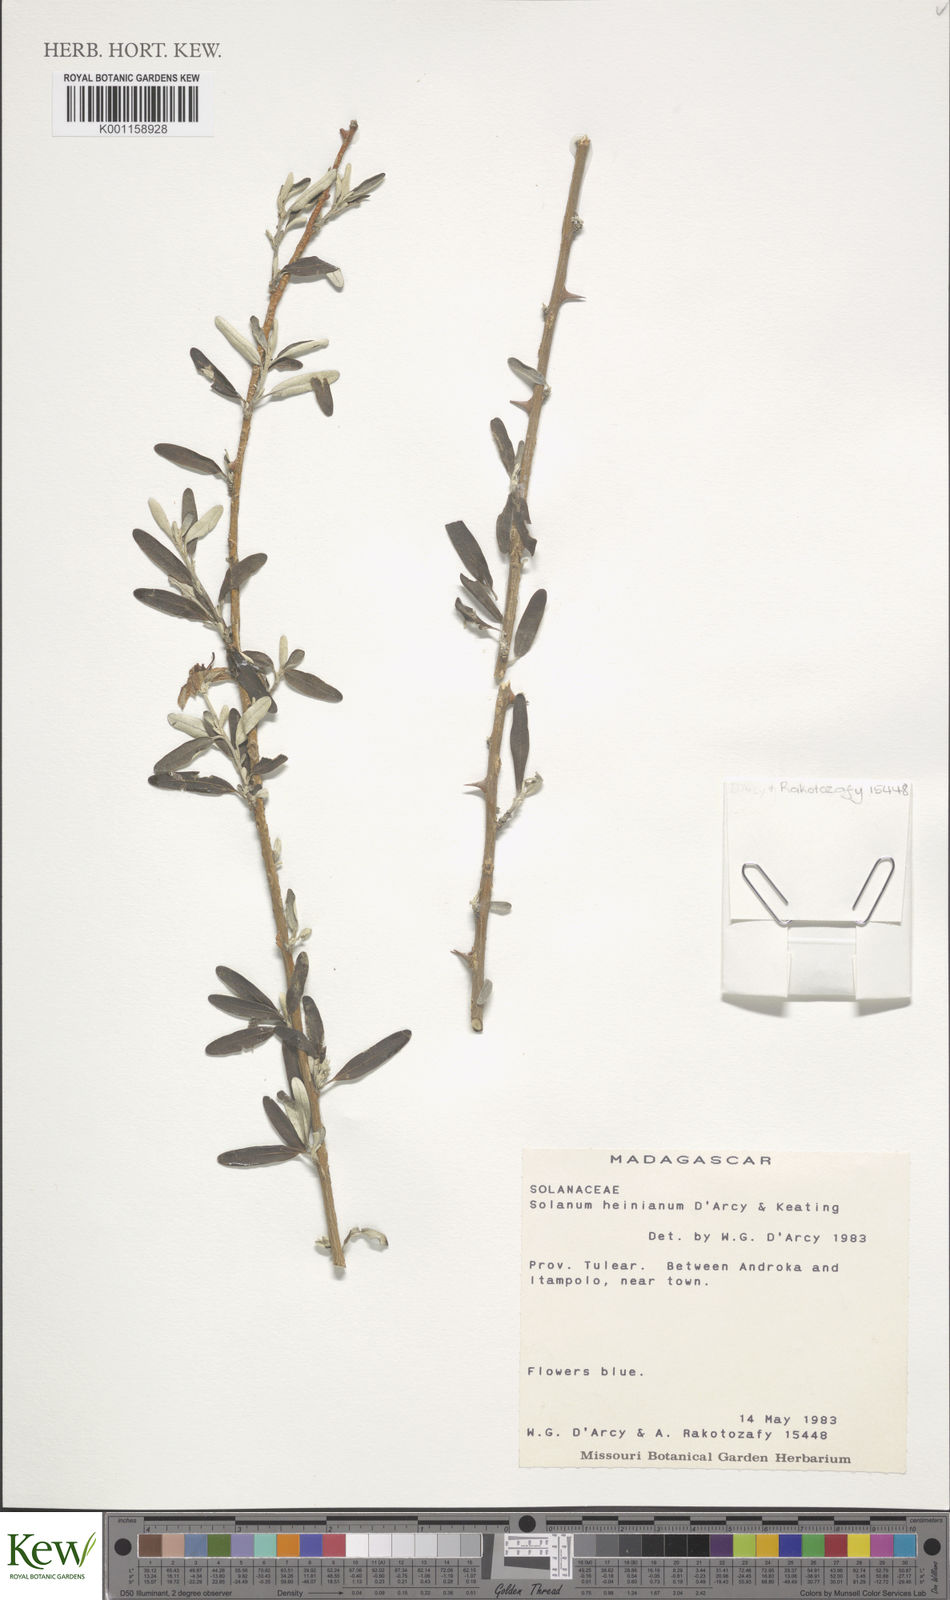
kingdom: Plantae
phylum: Tracheophyta
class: Magnoliopsida
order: Solanales
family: Solanaceae
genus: Solanum
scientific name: Solanum heinianum
